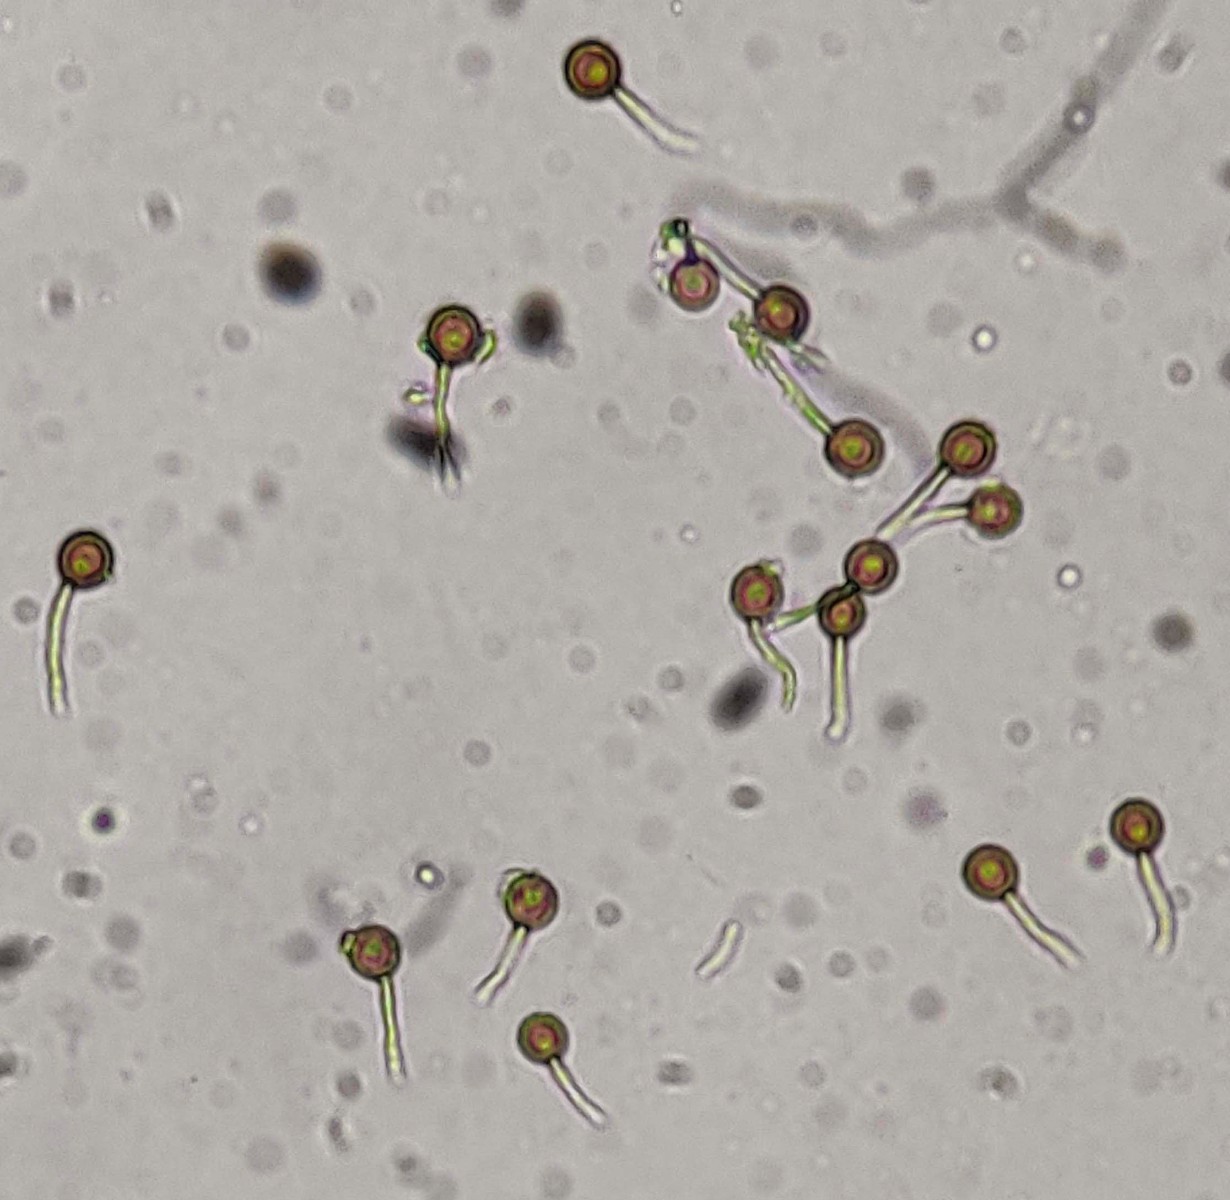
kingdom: Fungi
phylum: Basidiomycota
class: Agaricomycetes
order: Agaricales
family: Lycoperdaceae
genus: Bovista
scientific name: Bovista plumbea
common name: blygrå bovist
